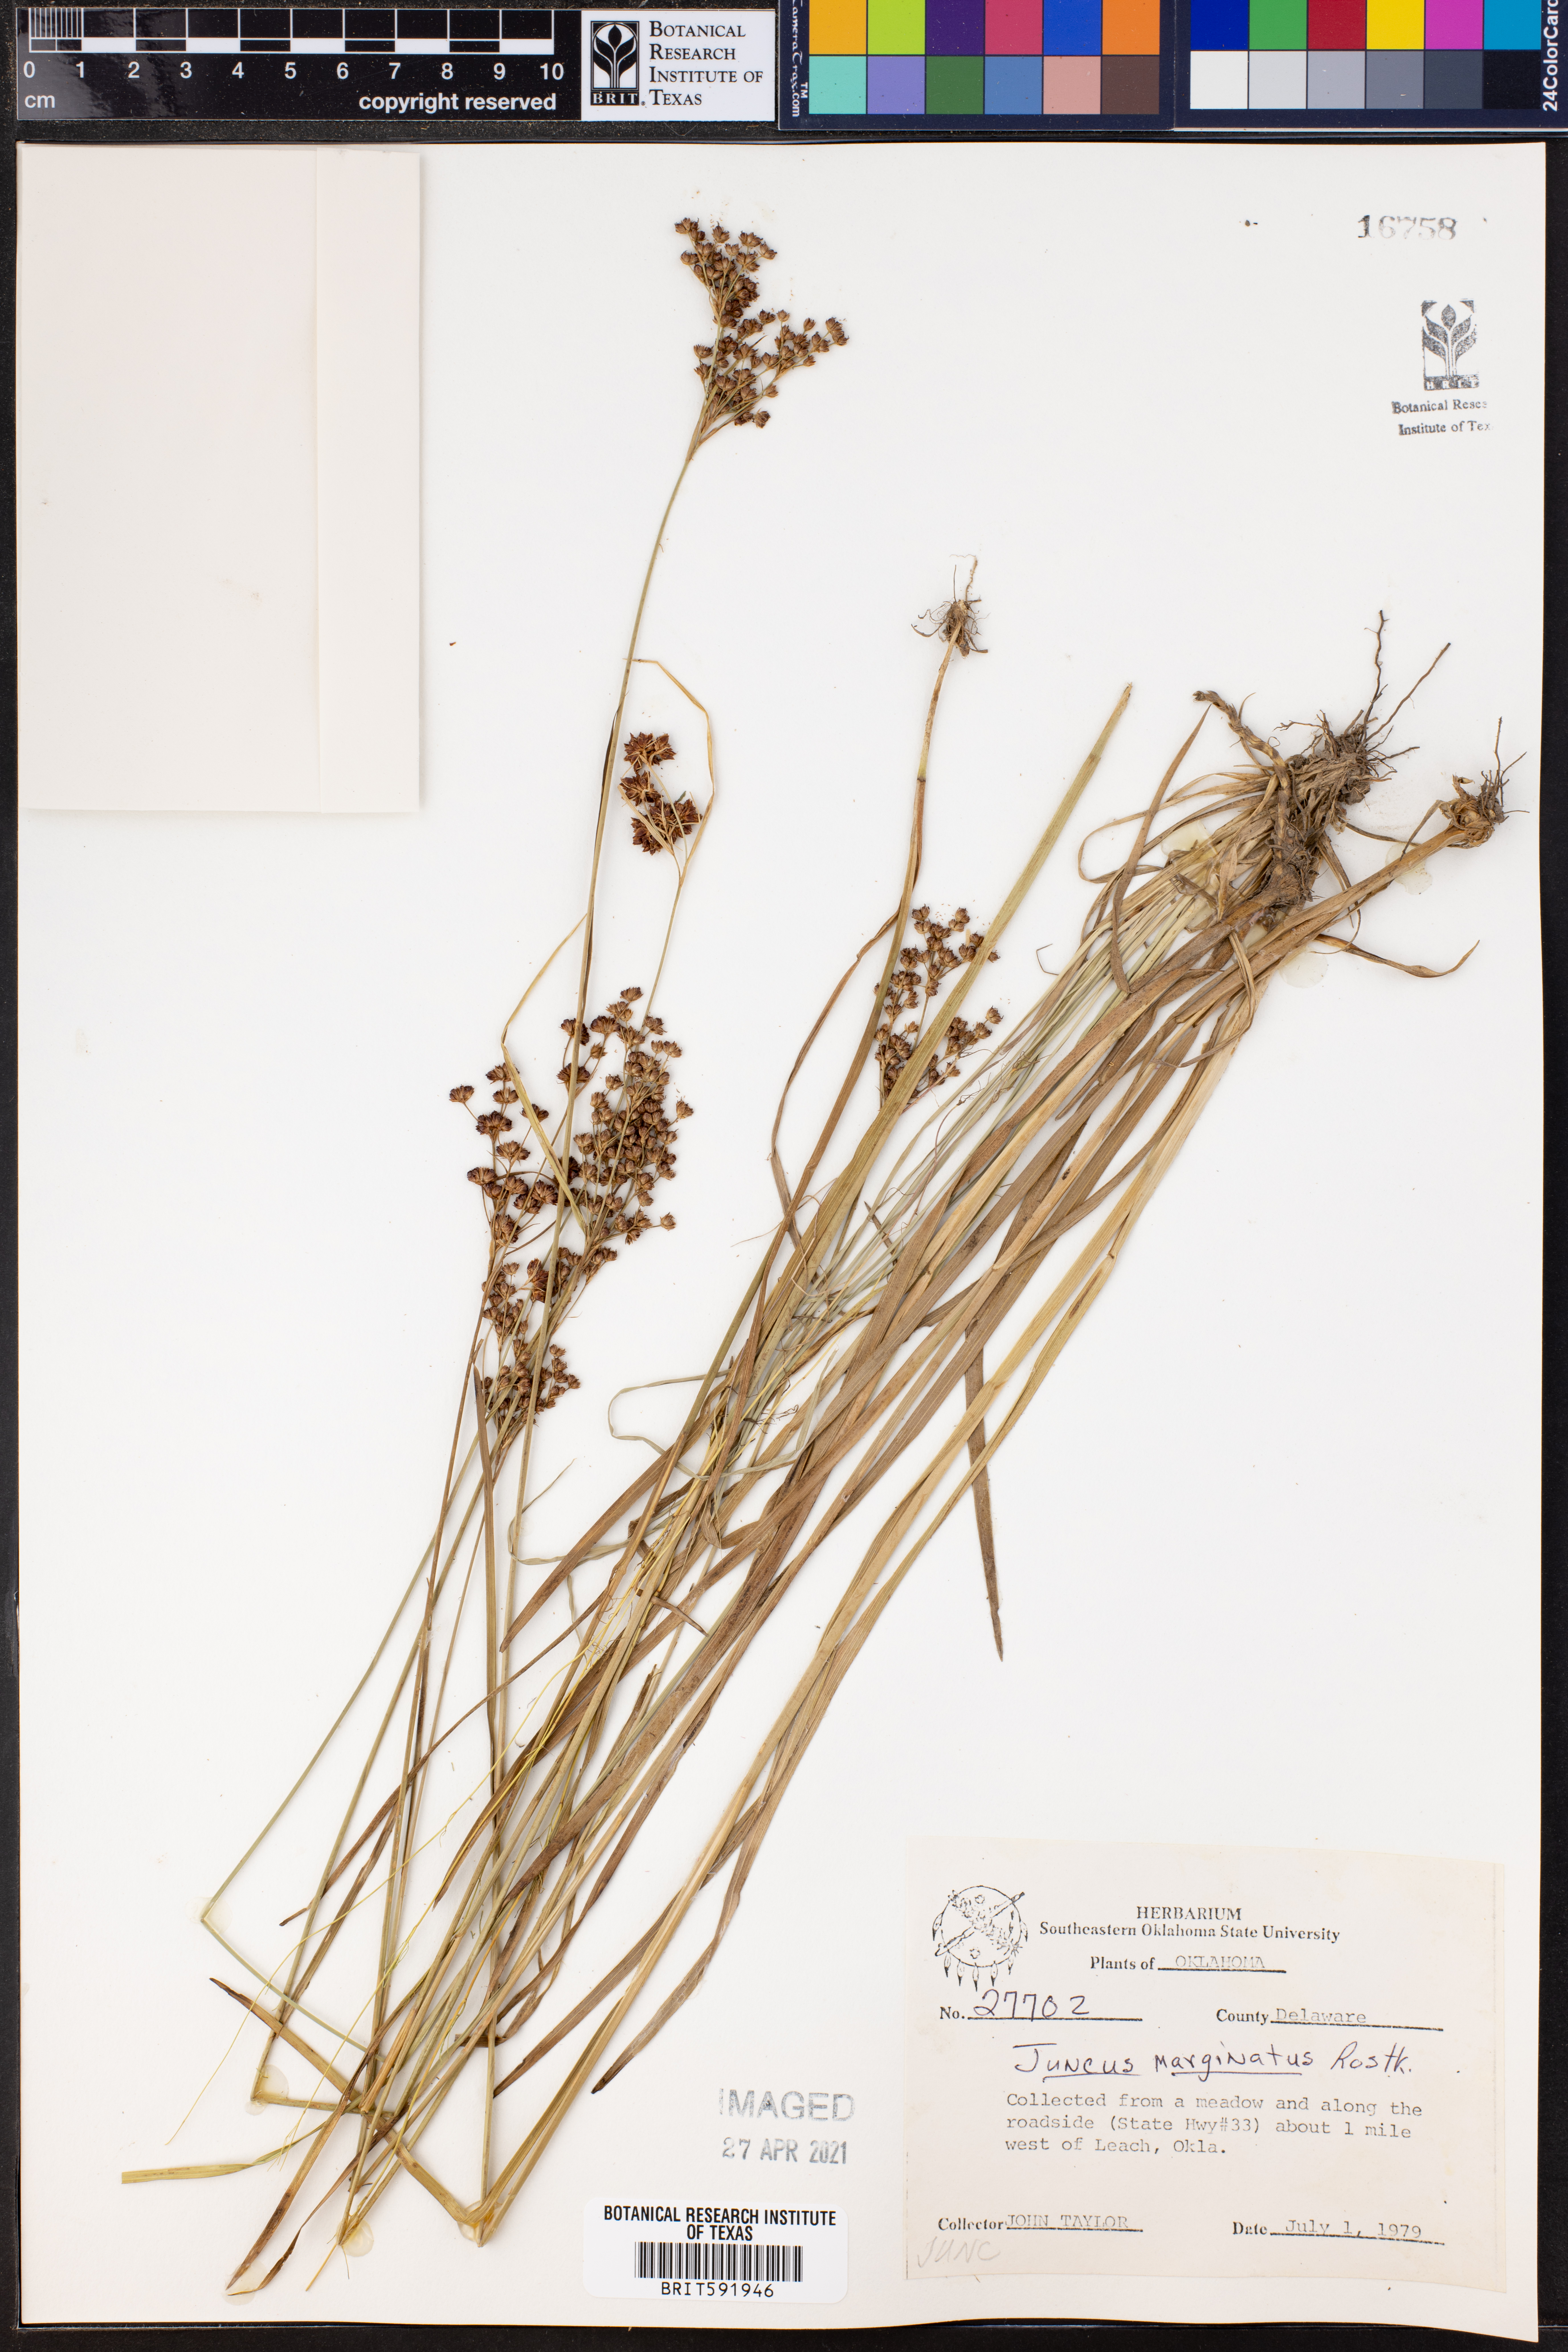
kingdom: Plantae
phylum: Tracheophyta
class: Liliopsida
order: Poales
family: Juncaceae
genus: Juncus
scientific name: Juncus marginatus
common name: Grass-leaf rush
